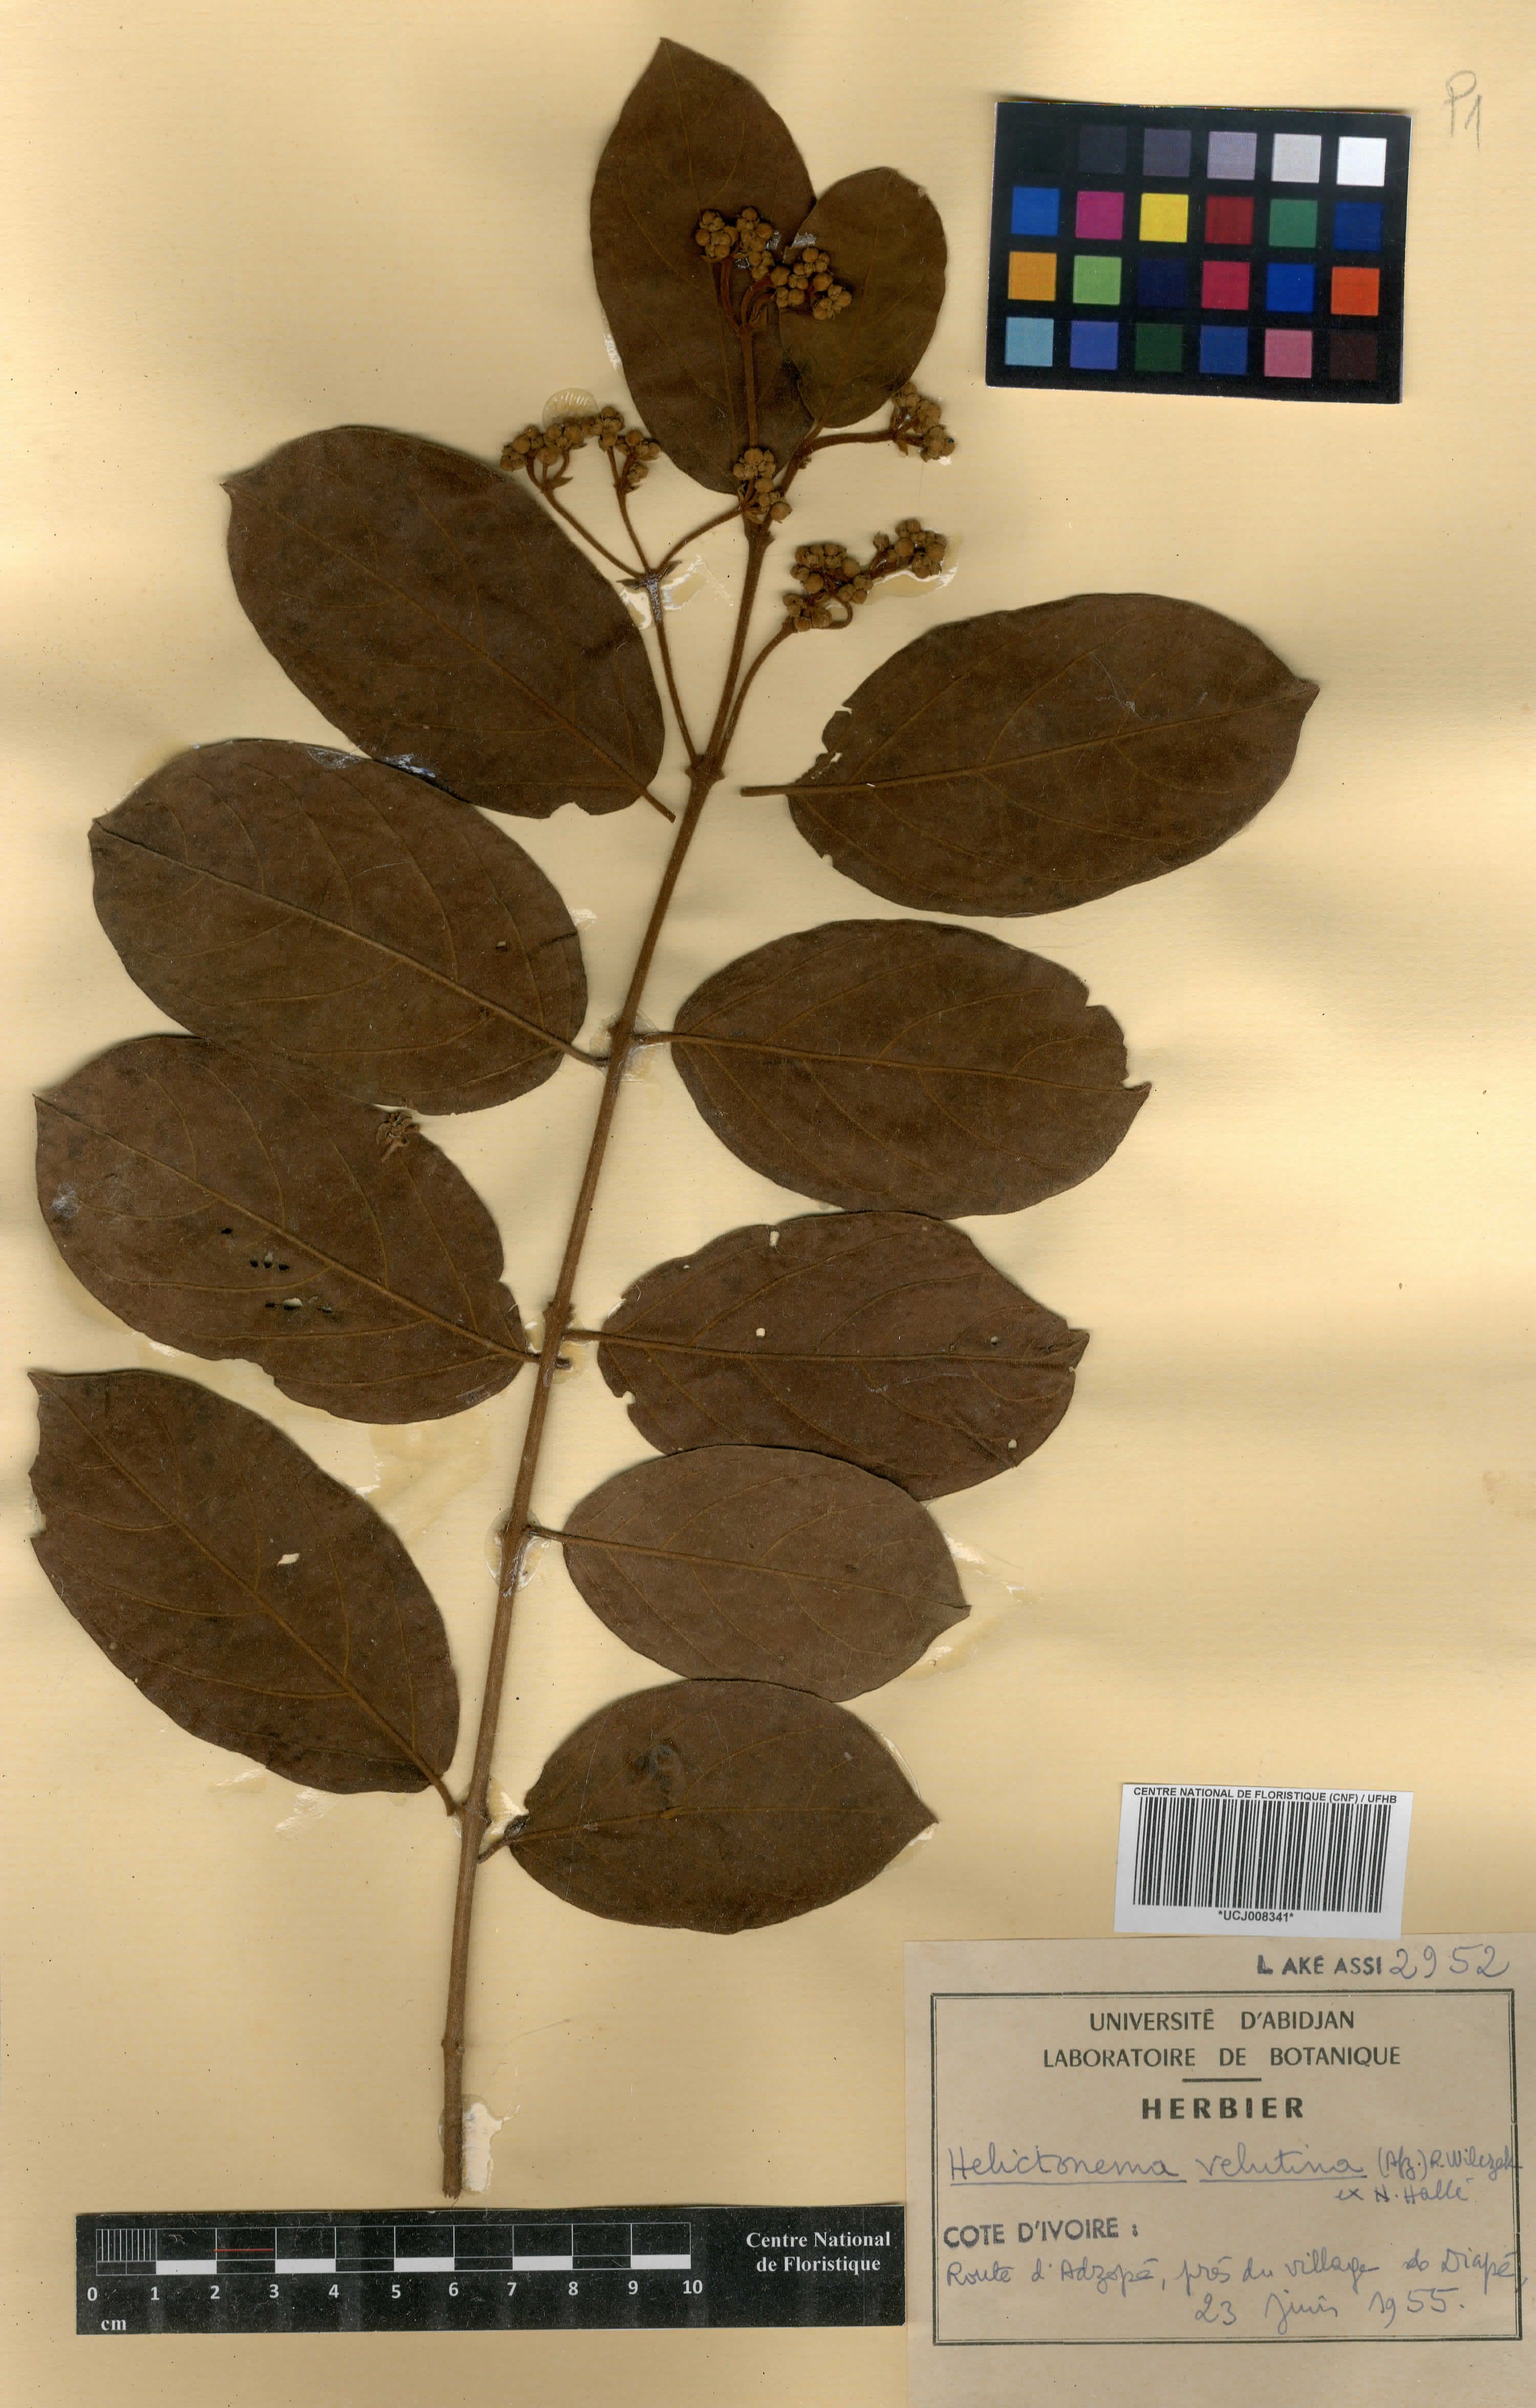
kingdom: Plantae
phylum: Tracheophyta
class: Magnoliopsida
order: Celastrales
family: Celastraceae
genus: Helictonema
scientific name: Helictonema velutinum
